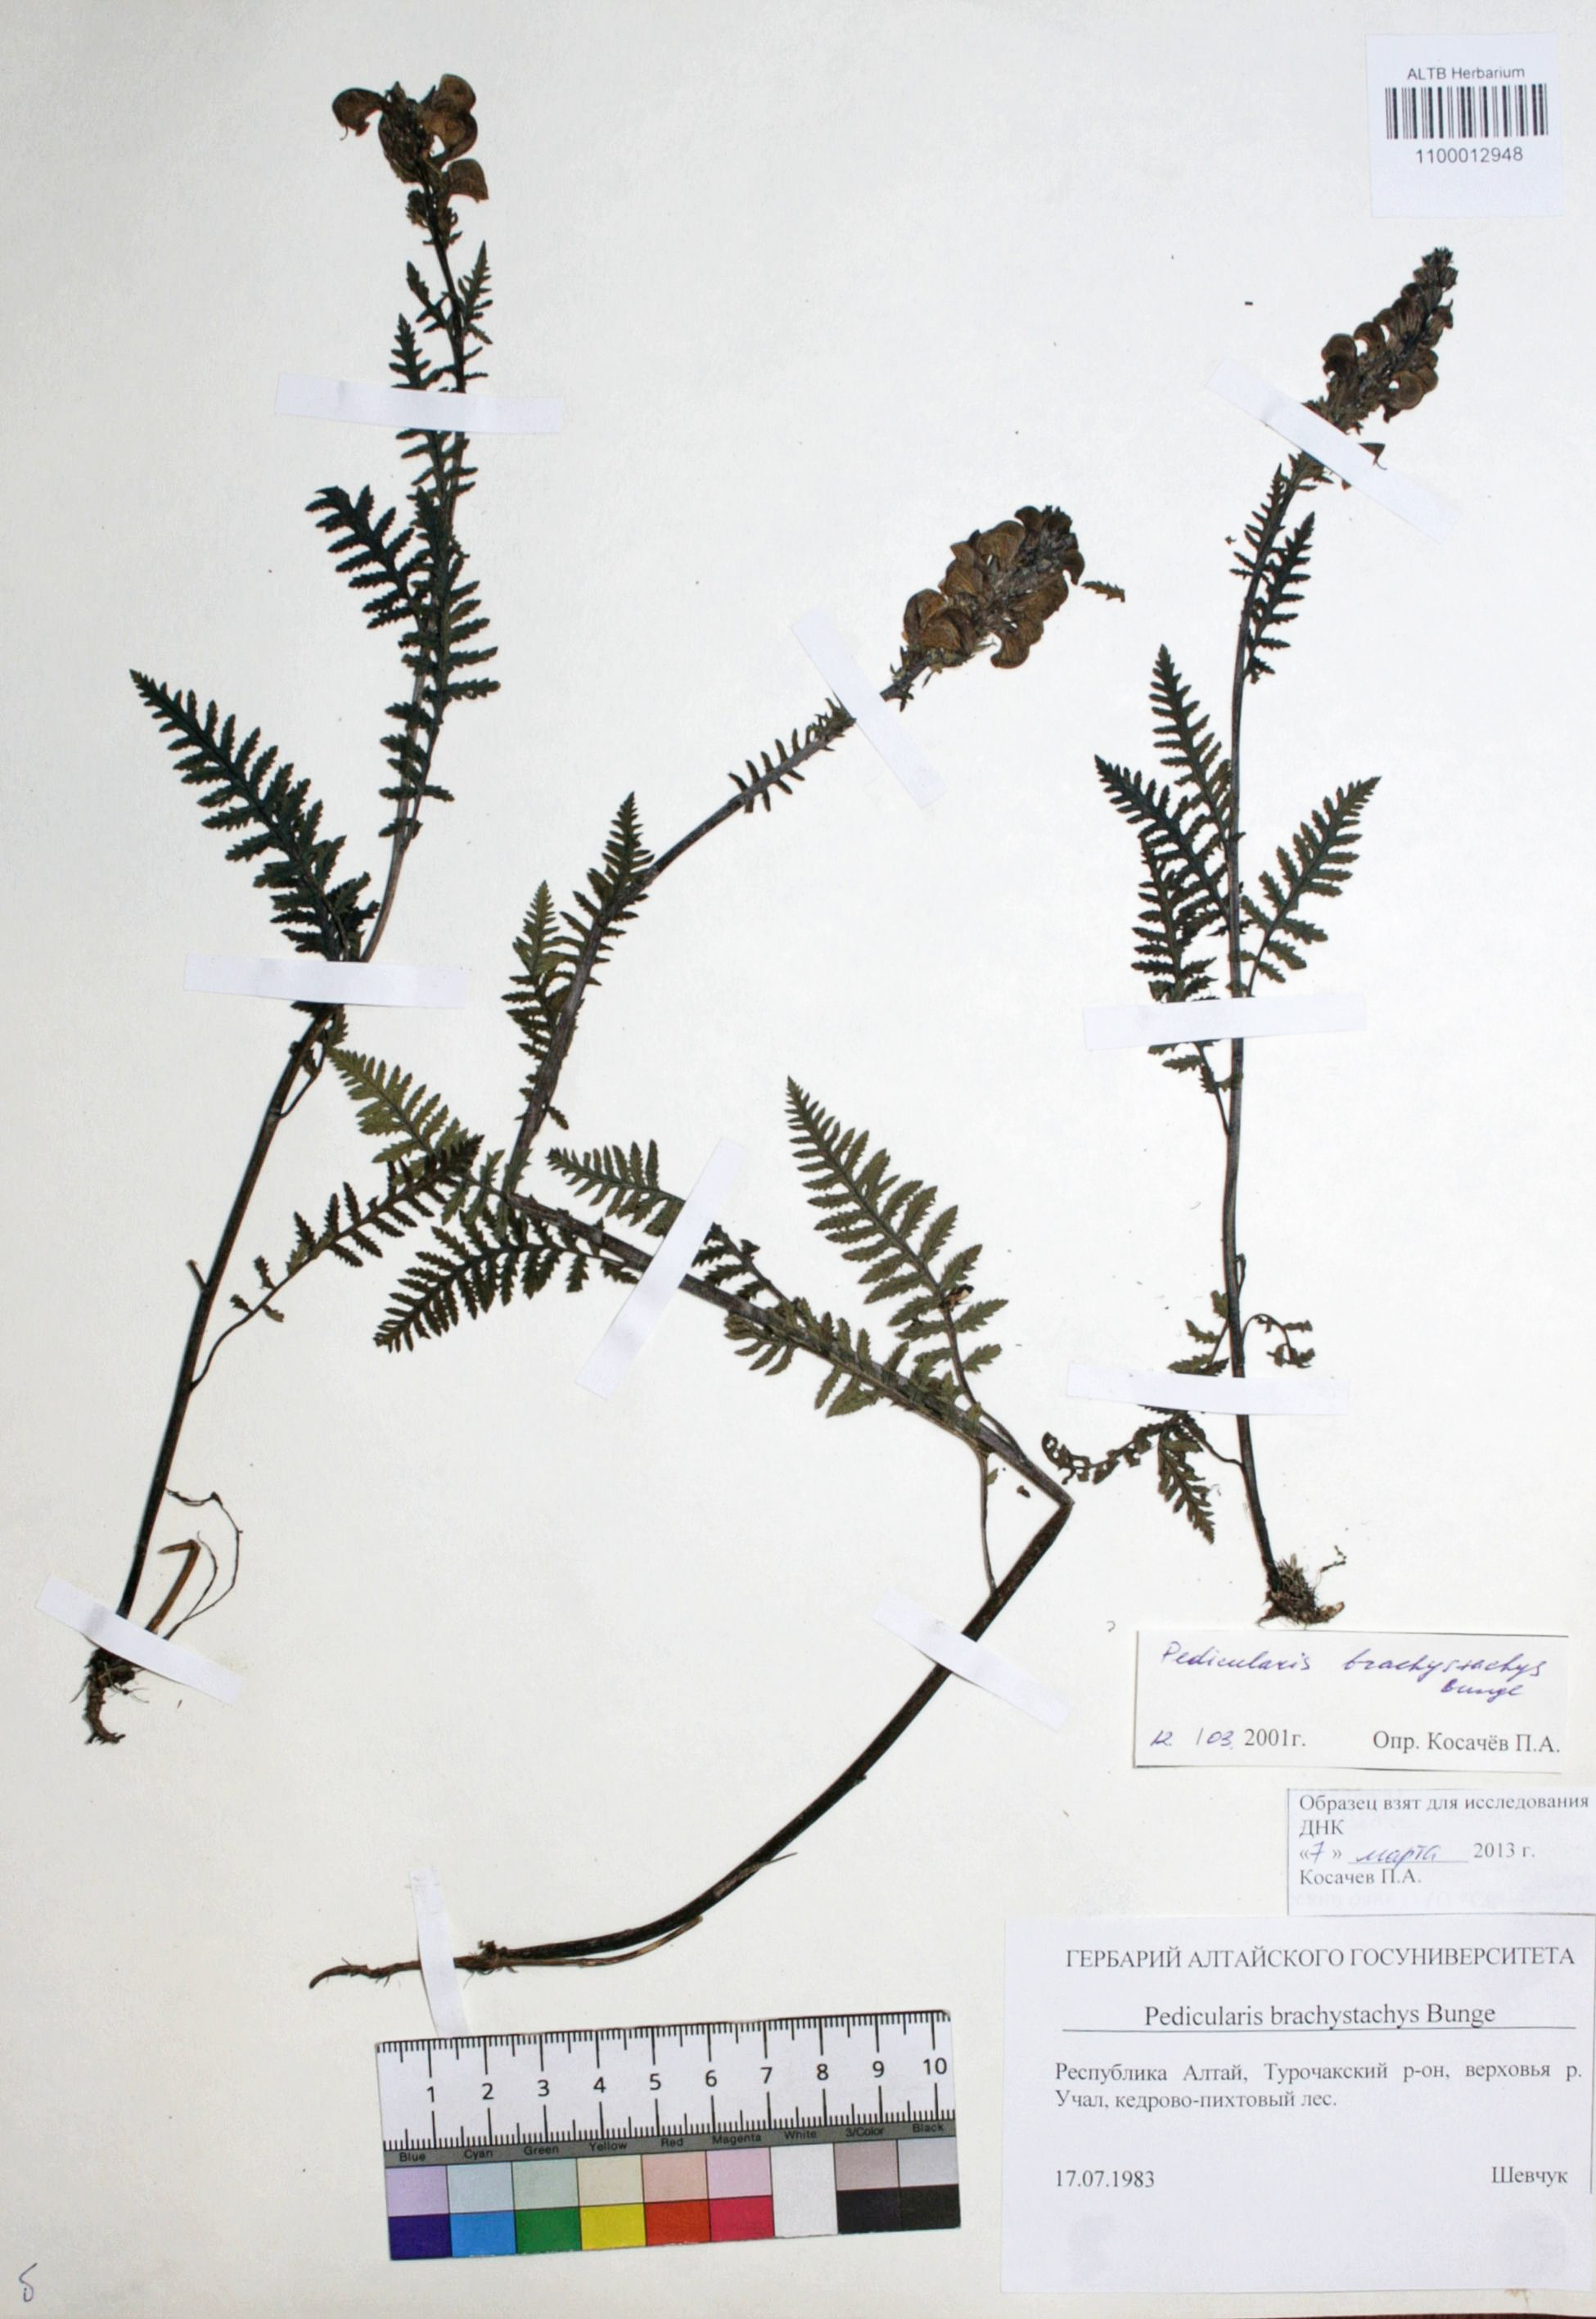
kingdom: Plantae
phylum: Tracheophyta
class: Magnoliopsida
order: Lamiales
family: Orobanchaceae
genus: Pedicularis
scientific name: Pedicularis brachystachys
